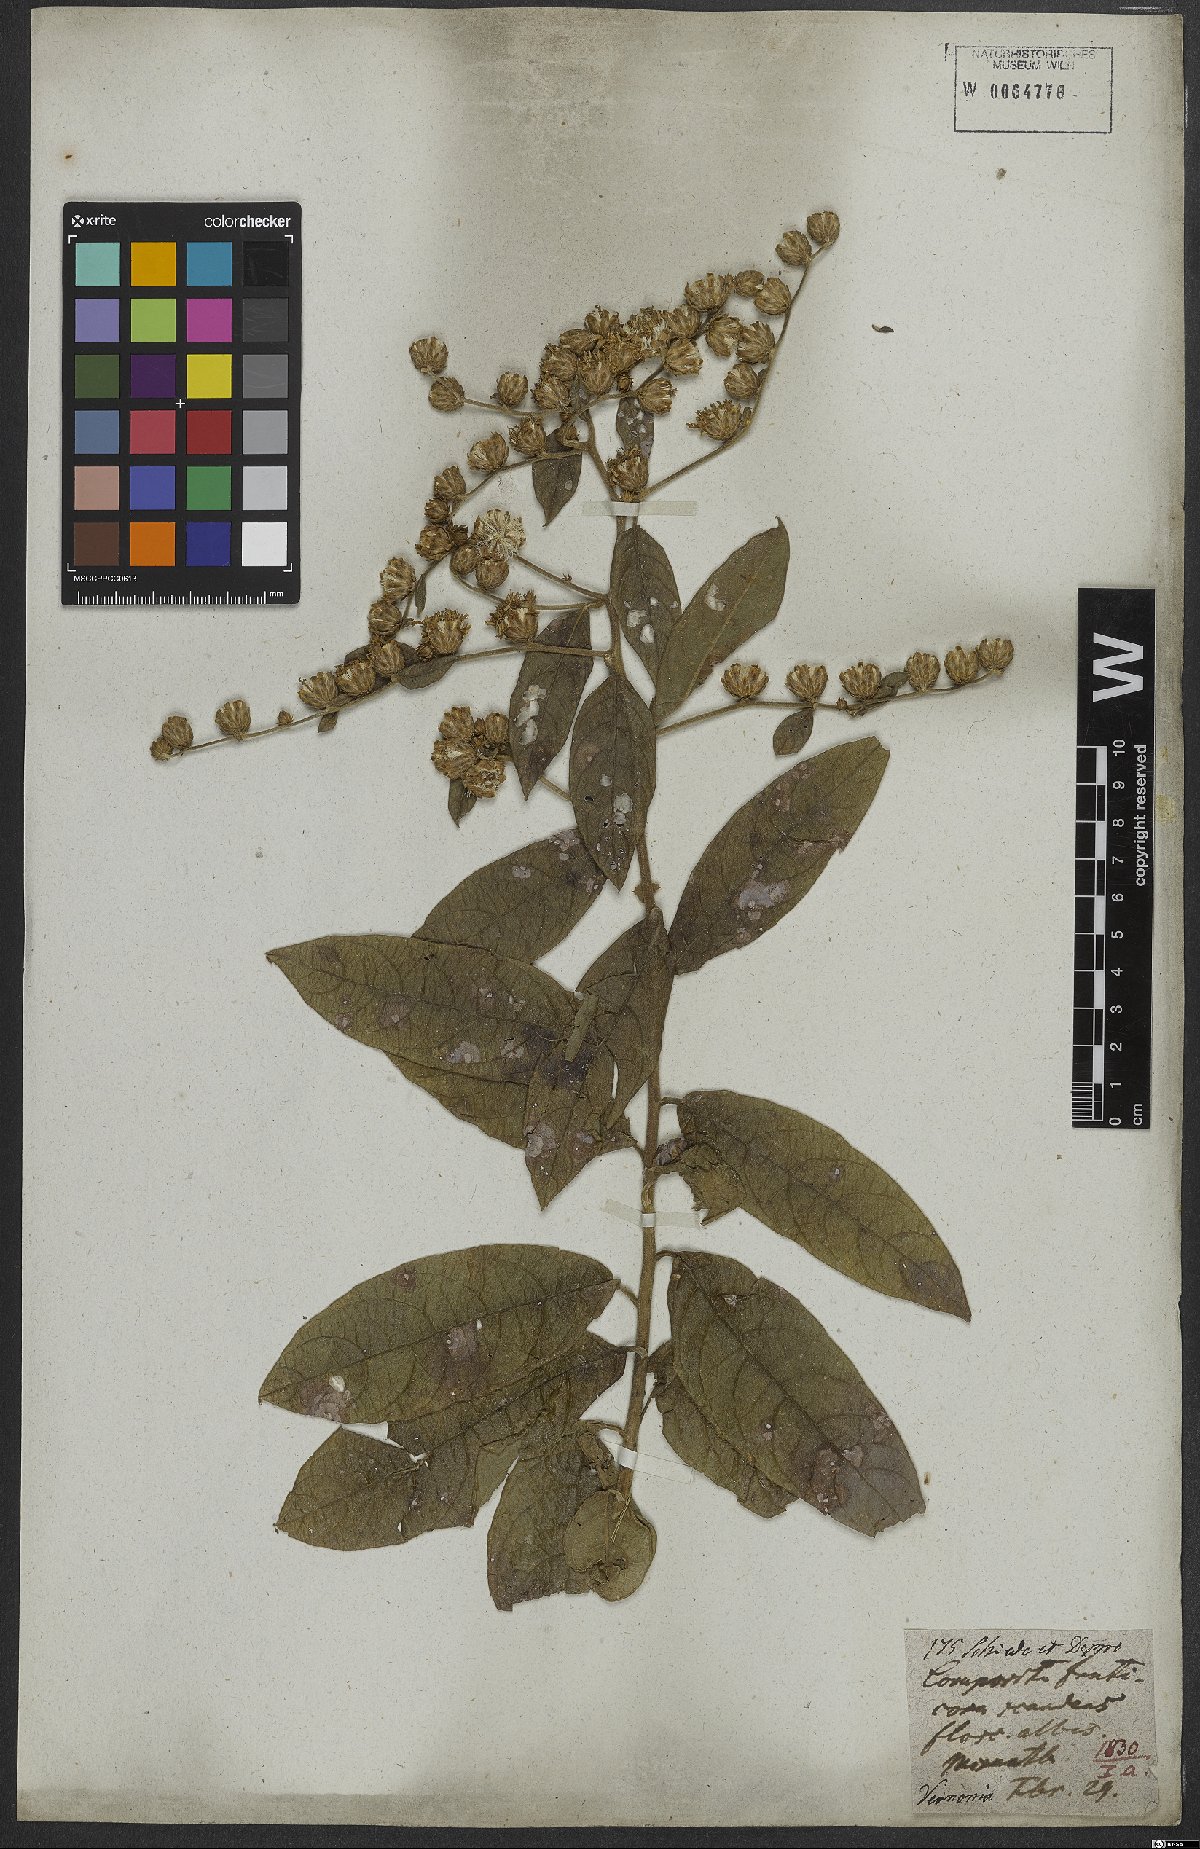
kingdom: Plantae
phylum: Tracheophyta
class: Magnoliopsida
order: Asterales
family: Asteraceae
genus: Vernonia
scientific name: Vernonia
